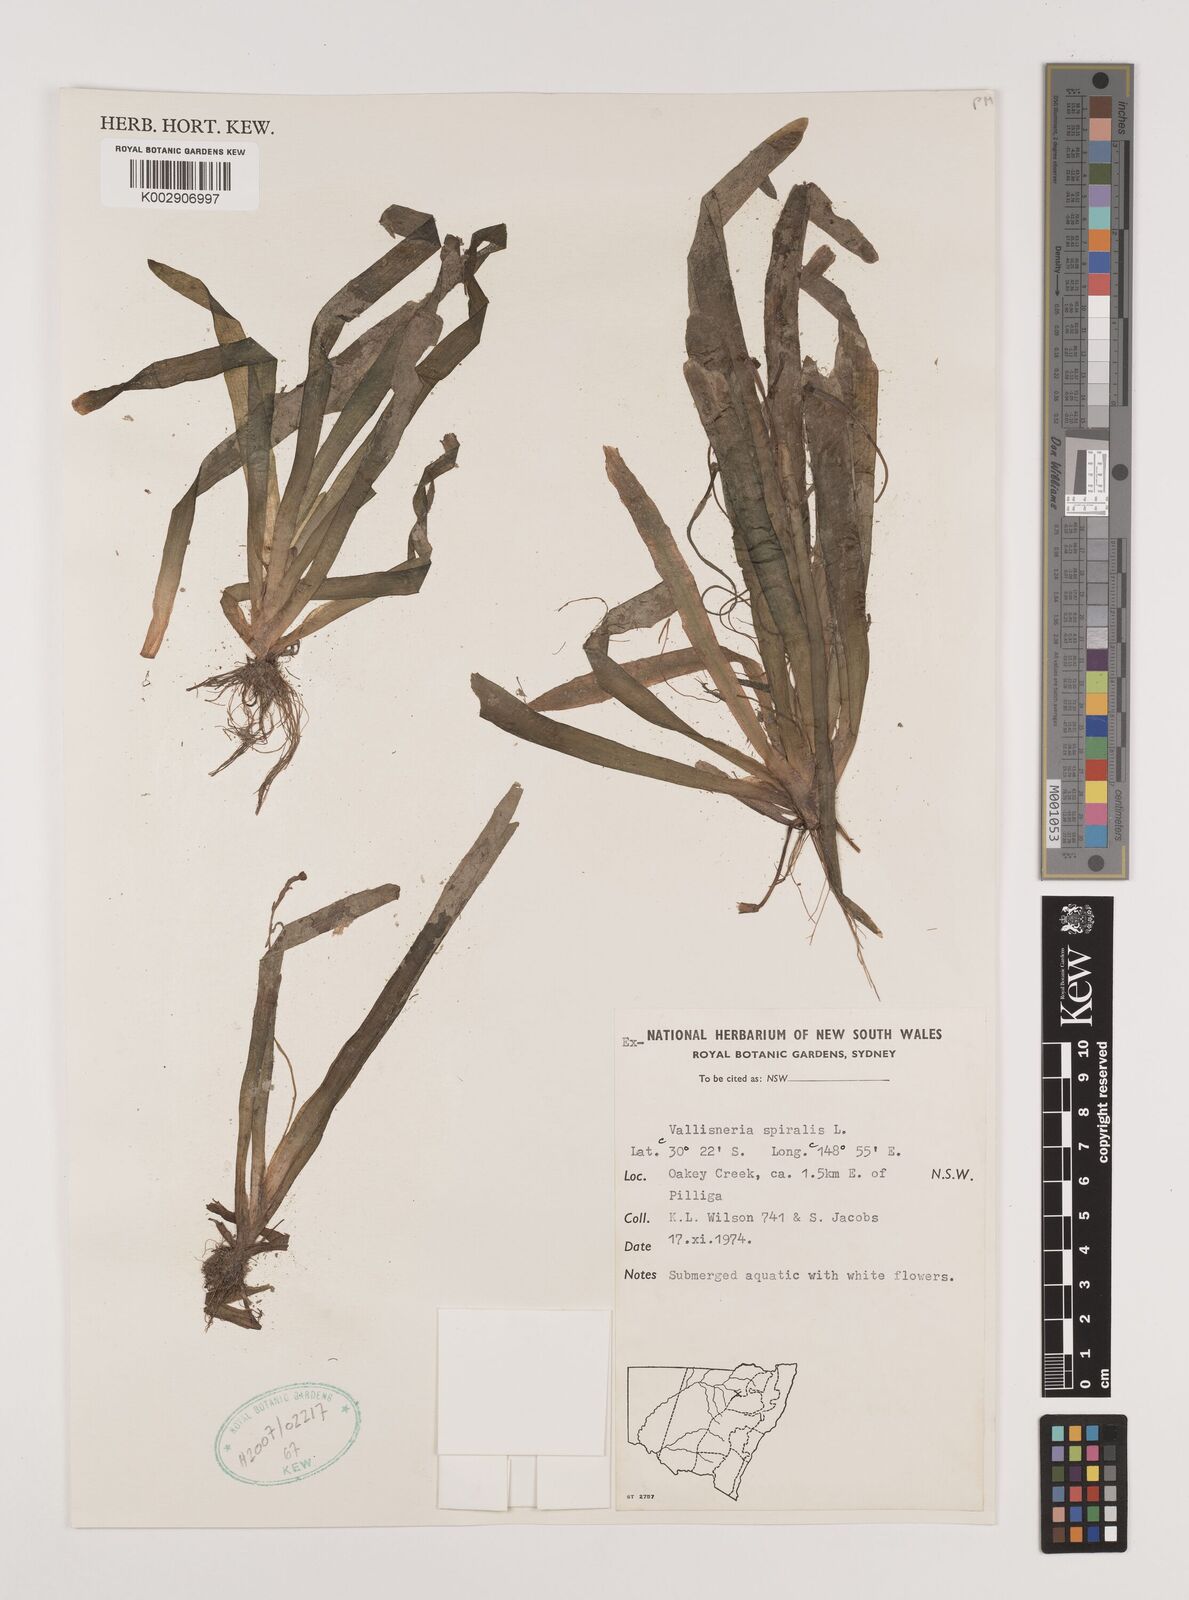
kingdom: Plantae
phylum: Tracheophyta
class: Liliopsida
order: Alismatales
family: Hydrocharitaceae
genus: Vallisneria
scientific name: Vallisneria spiralis
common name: Tapegrass
